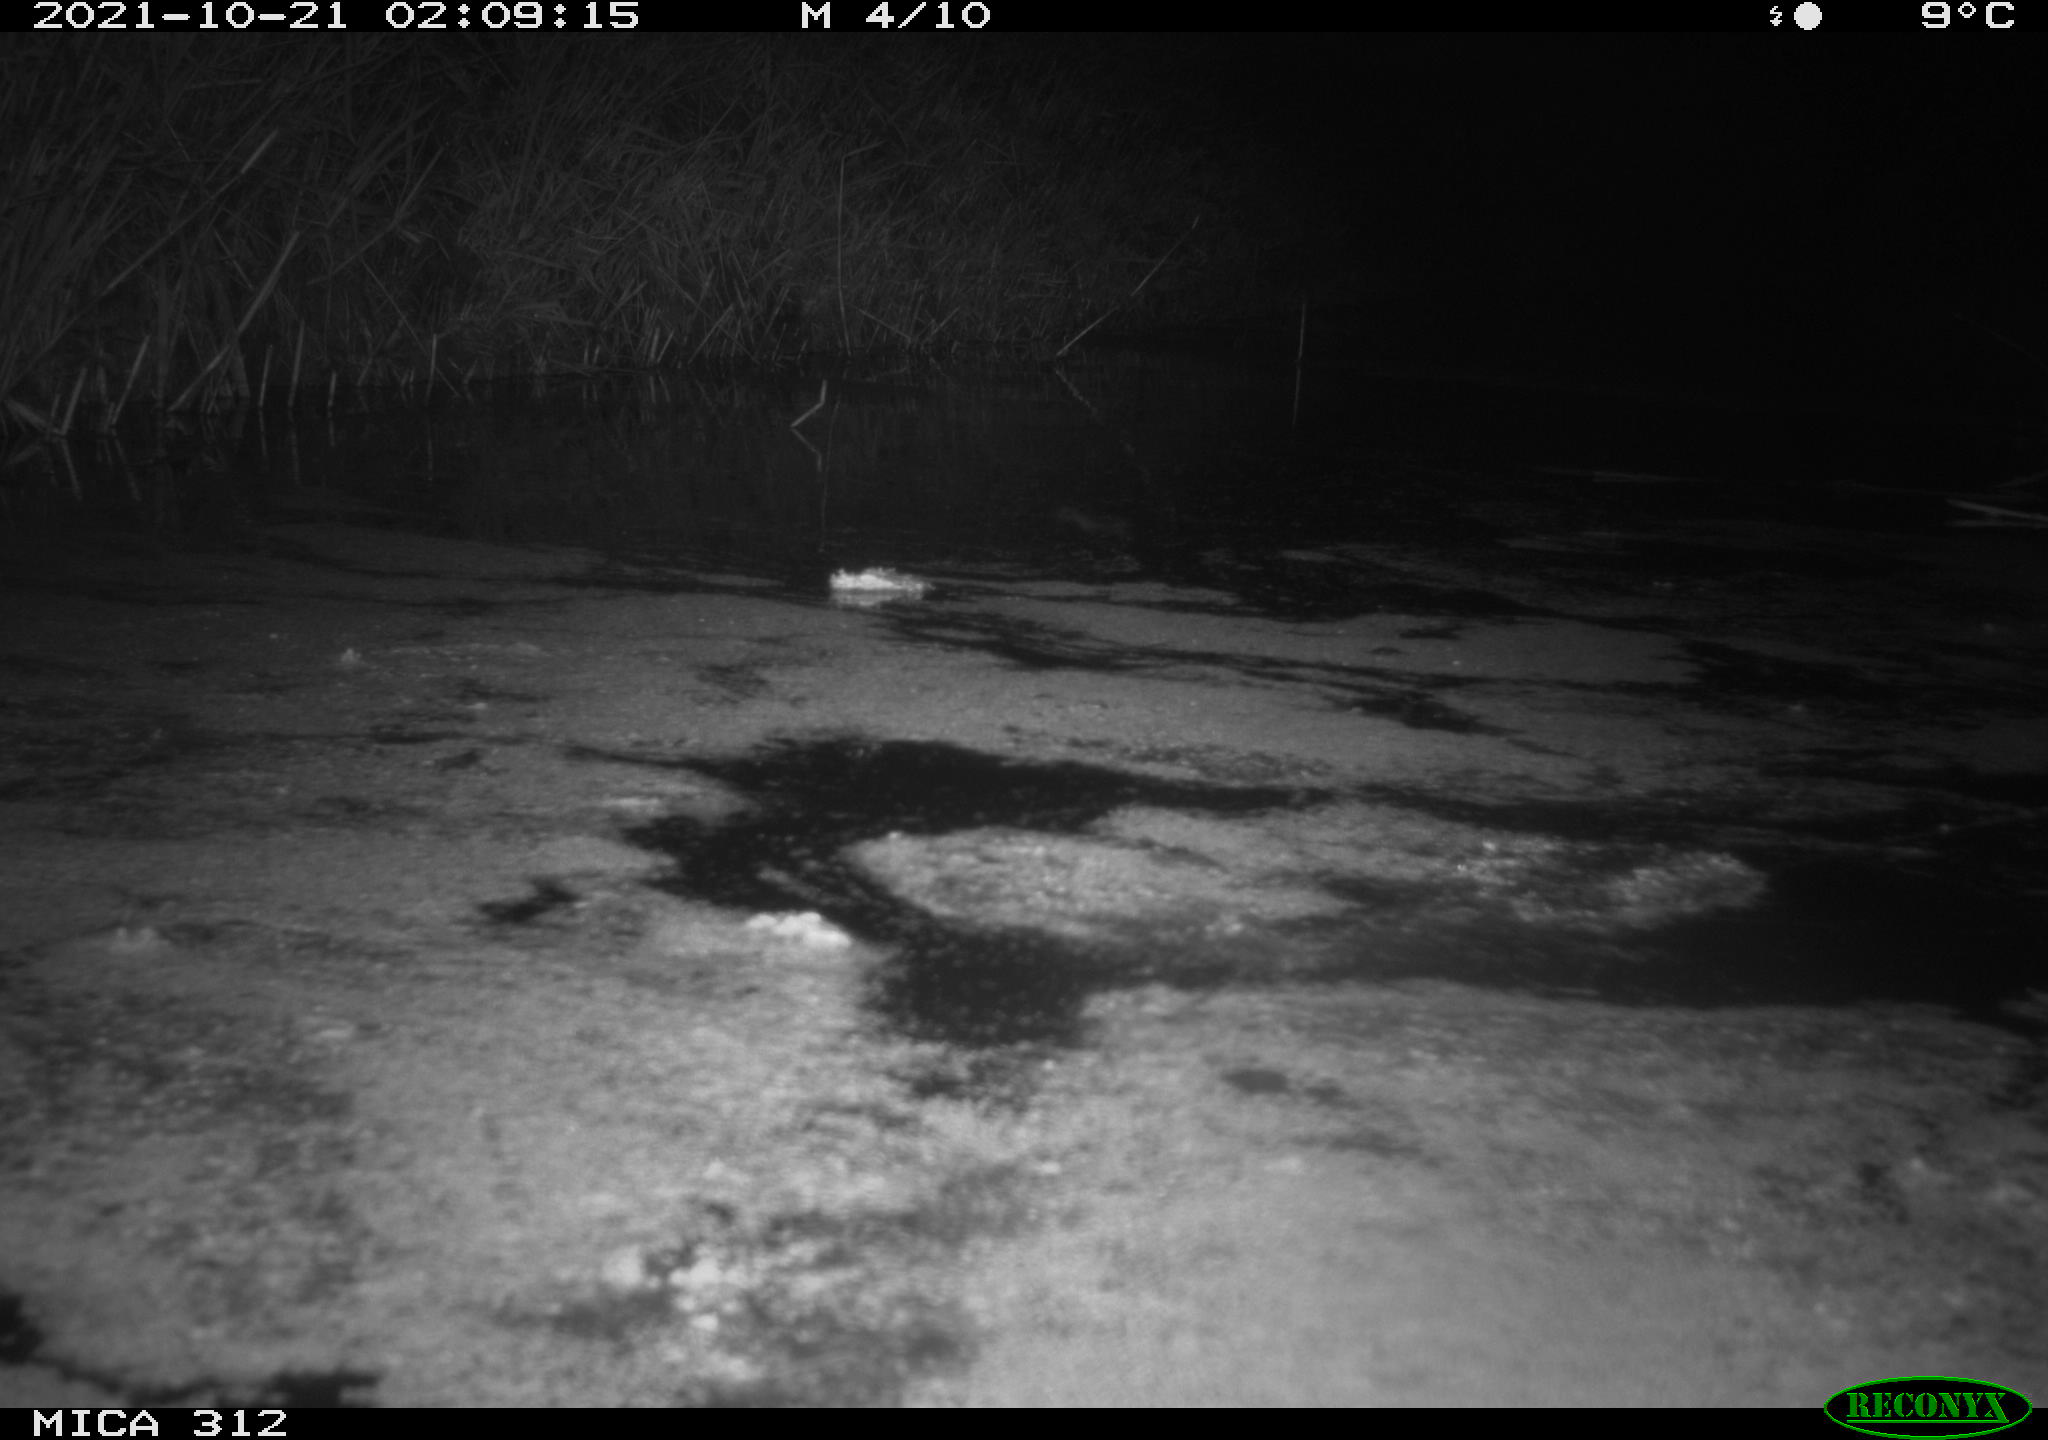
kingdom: Animalia
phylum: Chordata
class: Mammalia
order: Rodentia
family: Muridae
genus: Rattus
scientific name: Rattus norvegicus
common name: Brown rat
